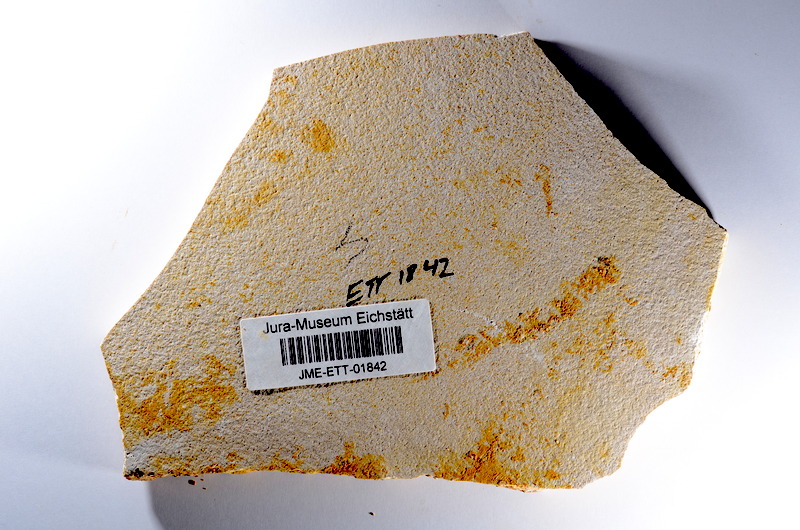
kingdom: Animalia
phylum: Chordata
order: Salmoniformes
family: Orthogonikleithridae
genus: Orthogonikleithrus
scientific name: Orthogonikleithrus hoelli
